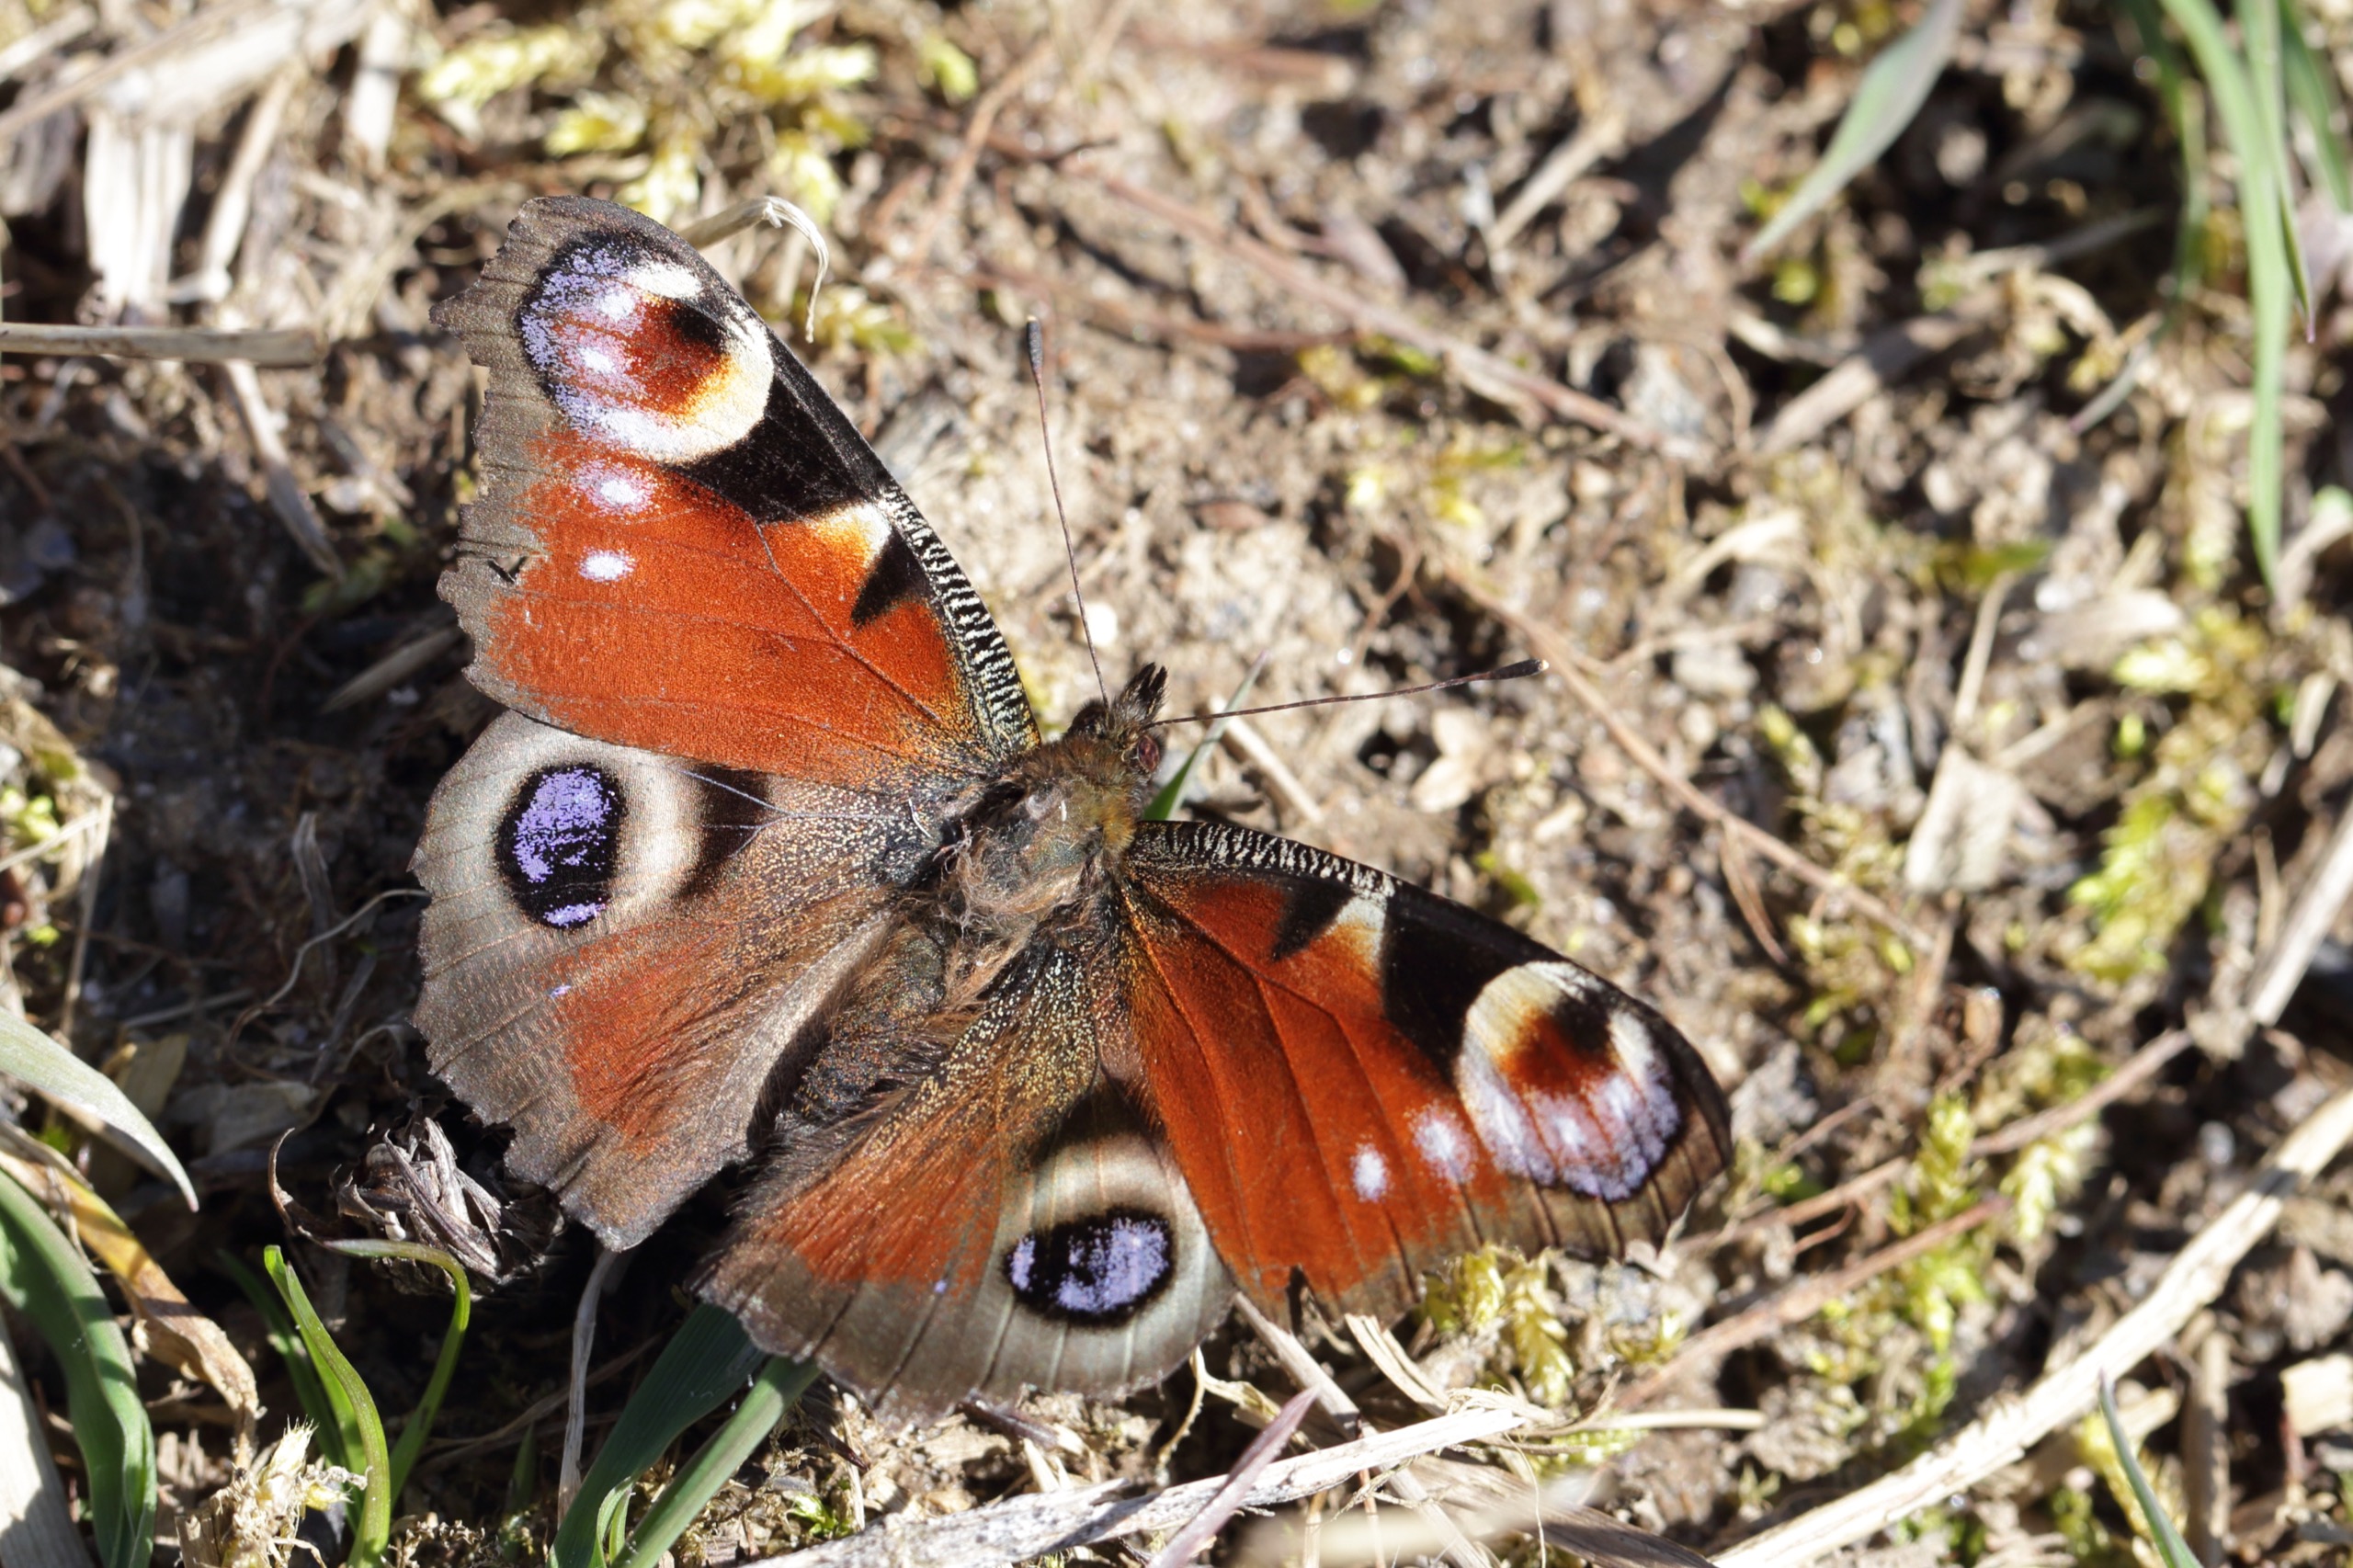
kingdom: Animalia
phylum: Arthropoda
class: Insecta
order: Lepidoptera
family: Nymphalidae
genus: Aglais
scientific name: Aglais io
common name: Dagpåfugleøje
